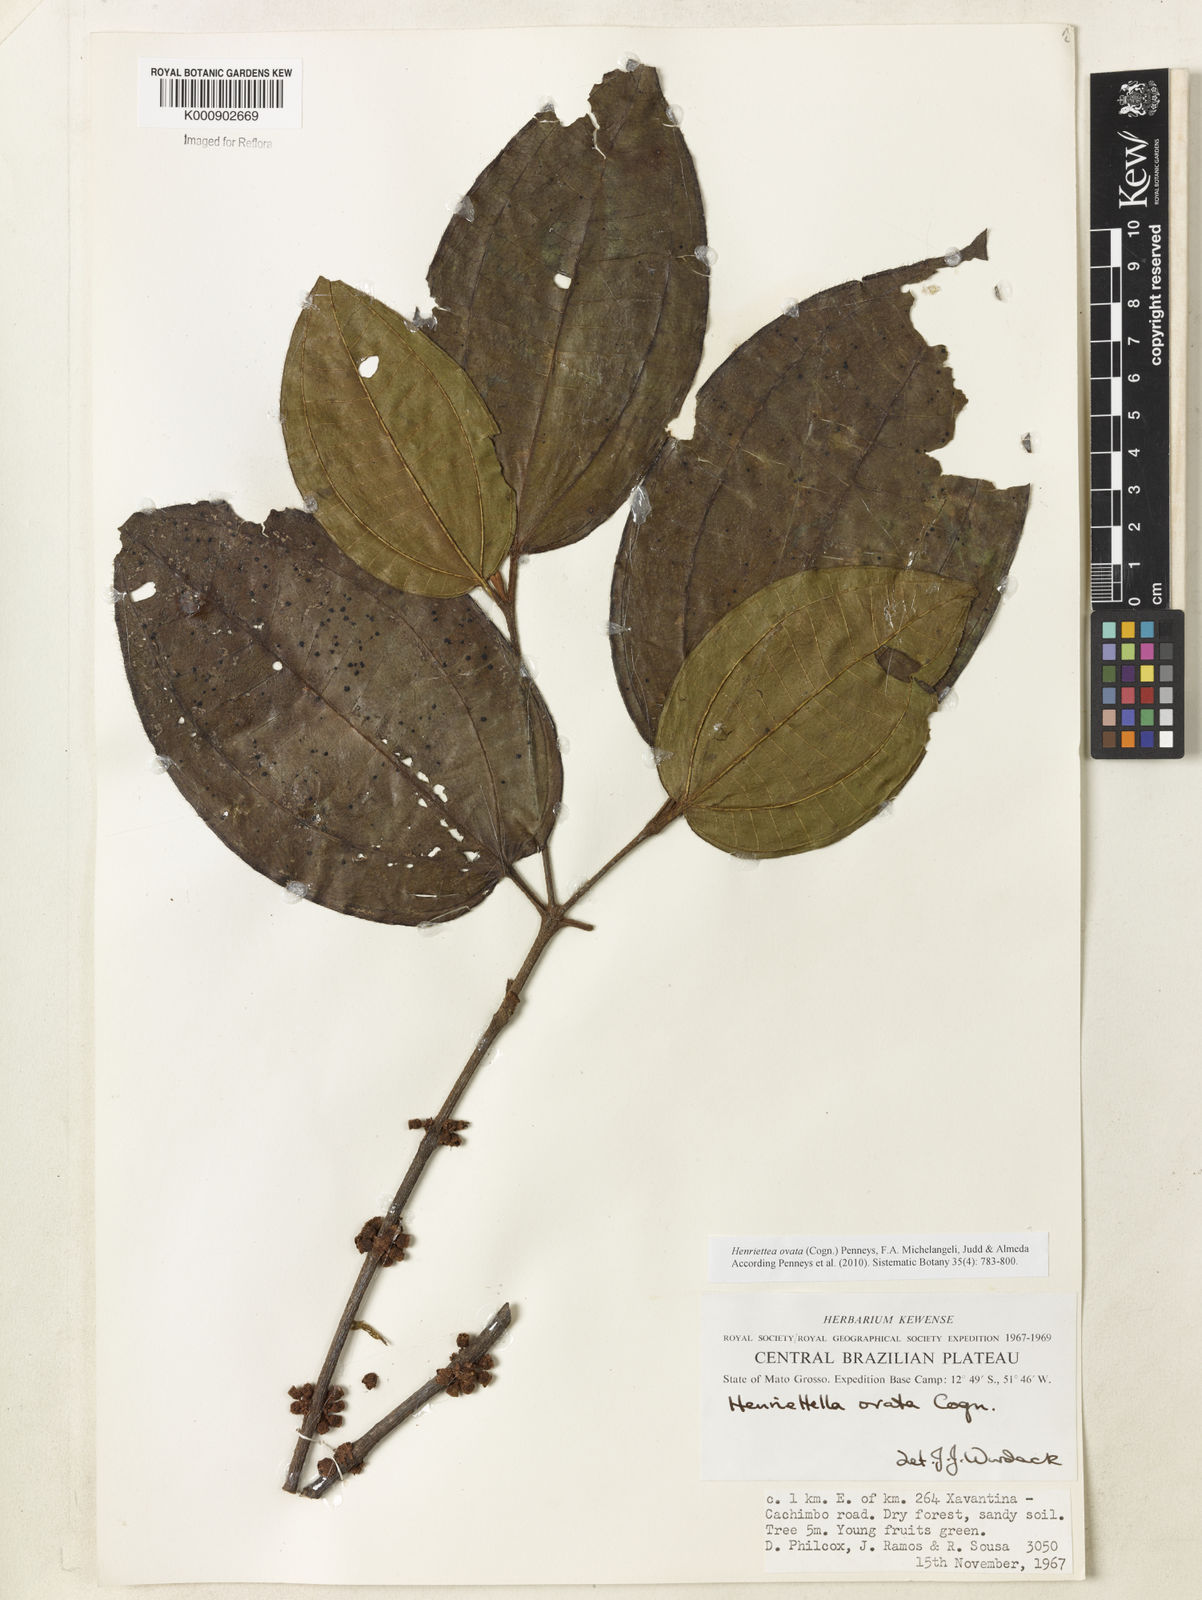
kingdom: Plantae
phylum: Tracheophyta
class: Magnoliopsida
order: Myrtales
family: Melastomataceae
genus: Henriettea
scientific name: Henriettea ovata
